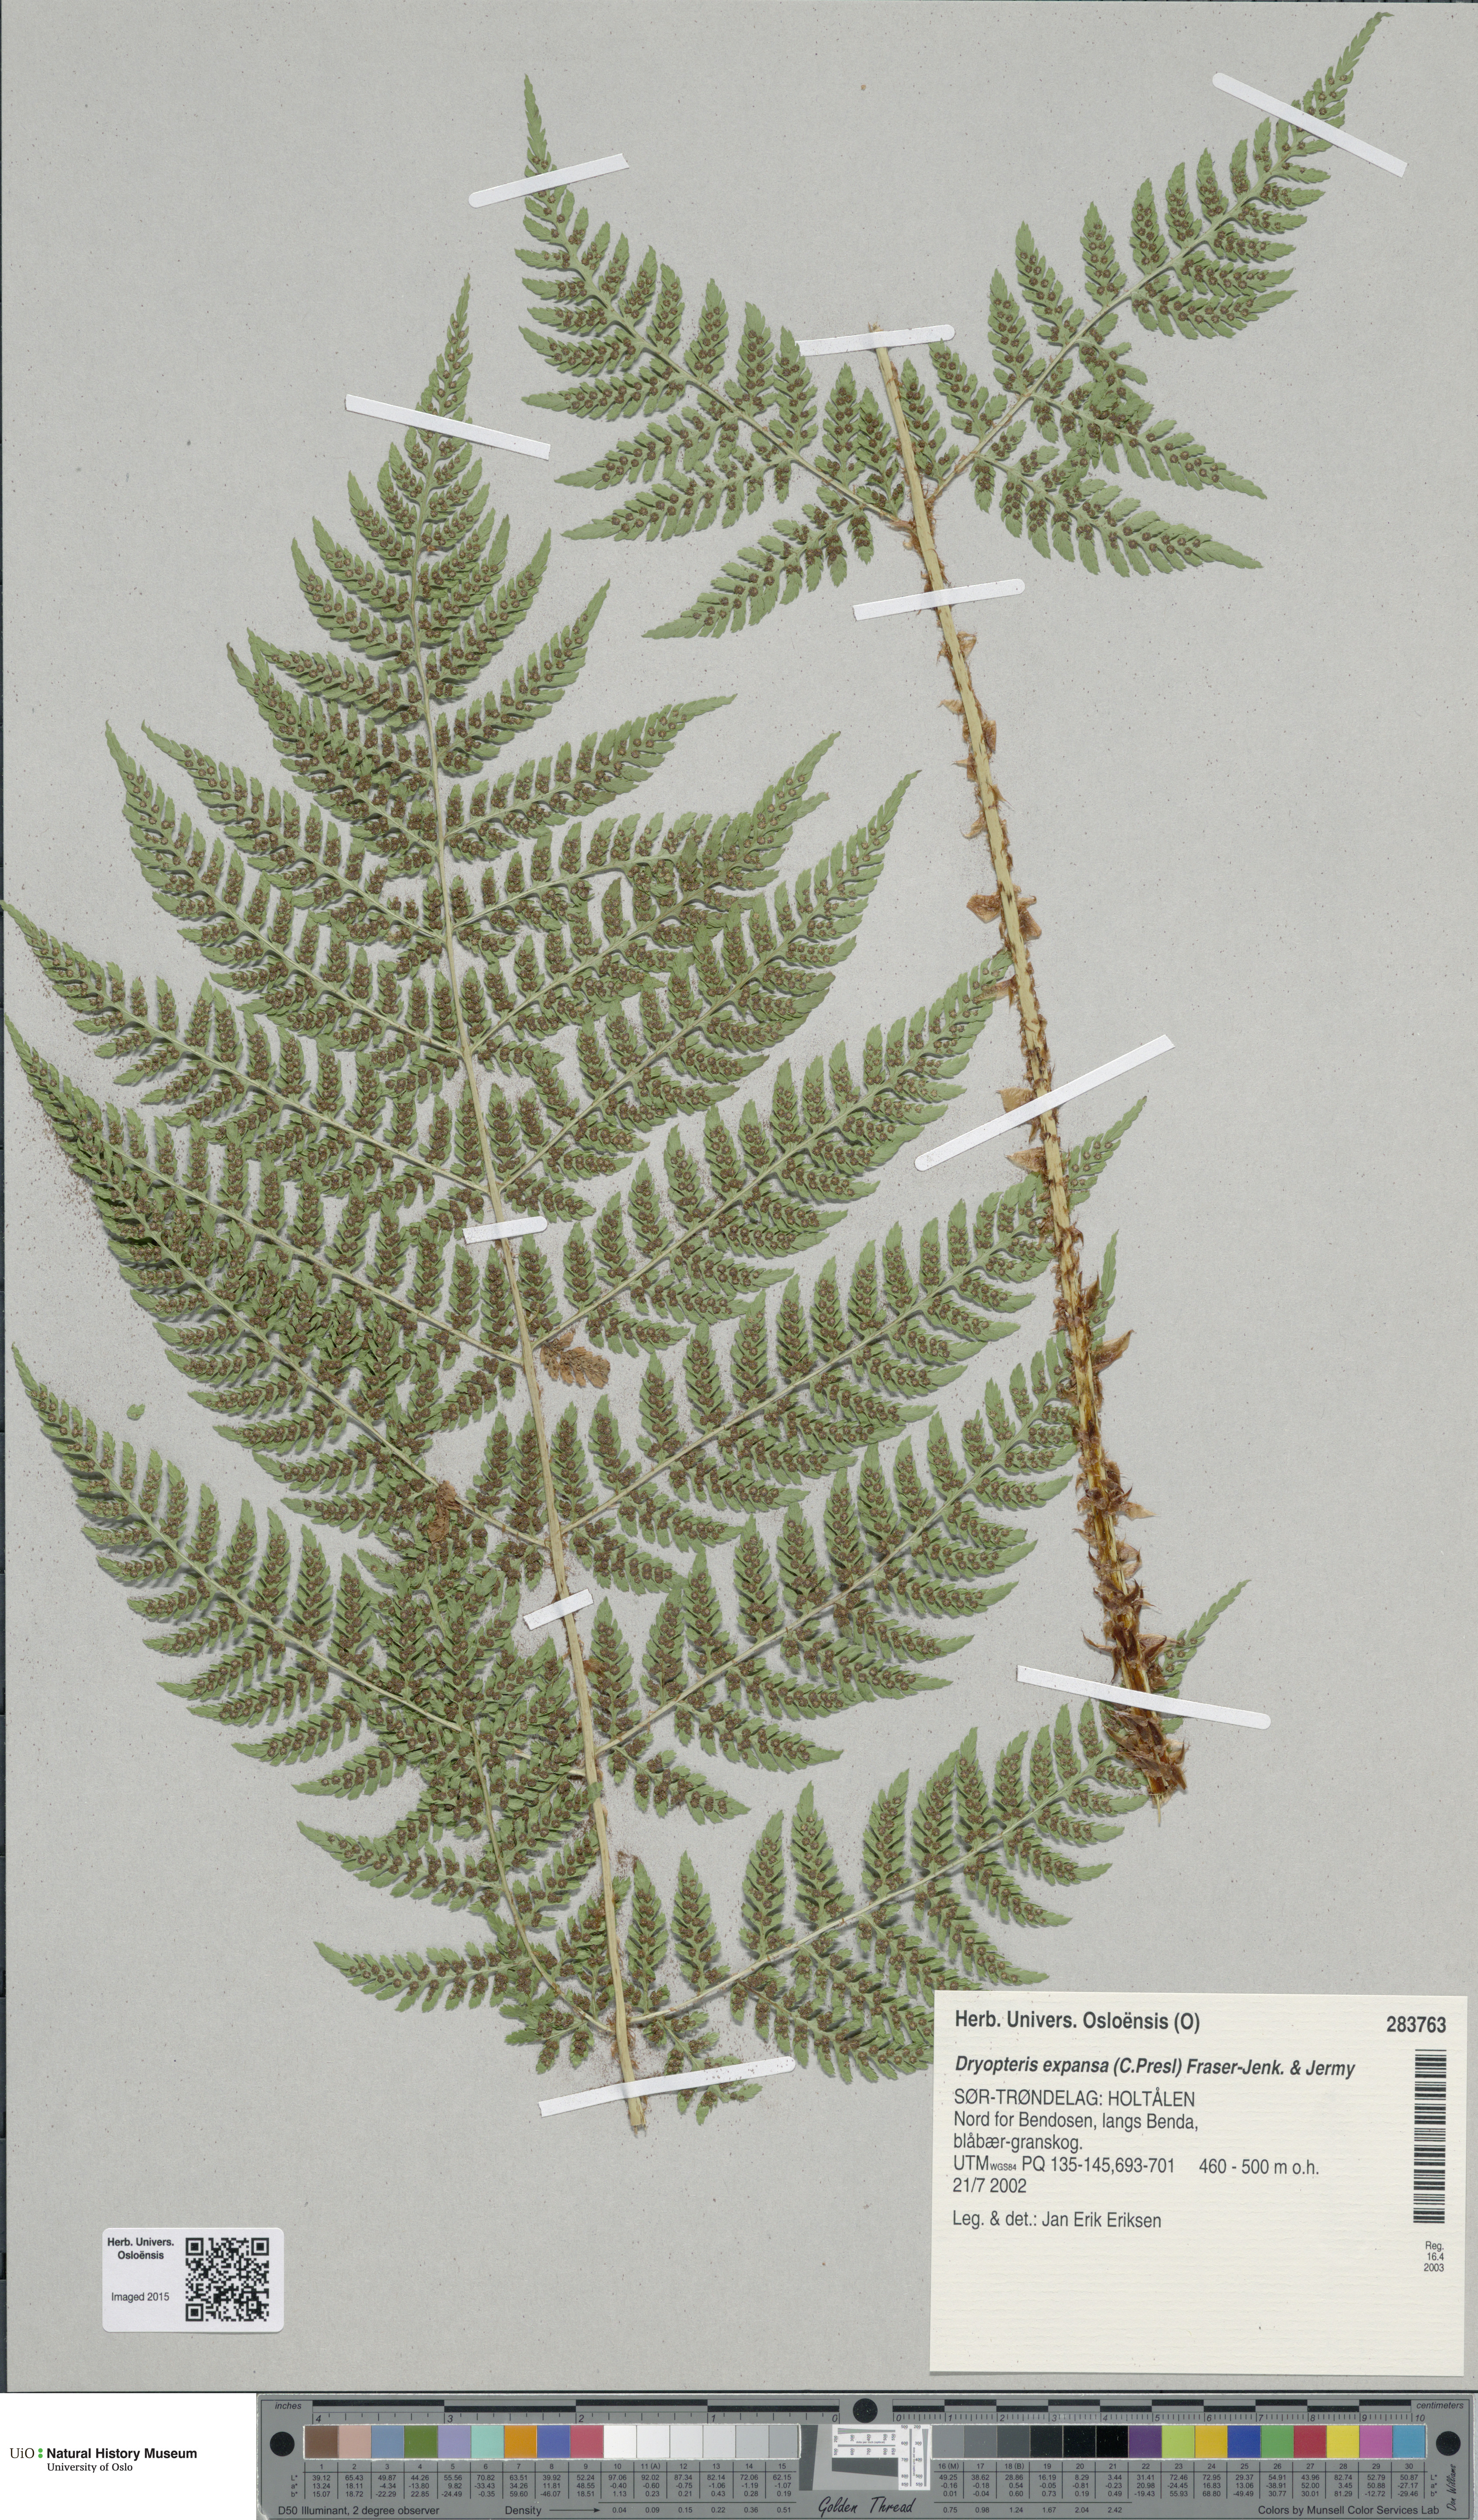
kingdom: Plantae
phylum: Tracheophyta
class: Polypodiopsida
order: Polypodiales
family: Dryopteridaceae
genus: Dryopteris
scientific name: Dryopteris expansa
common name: Northern buckler fern
